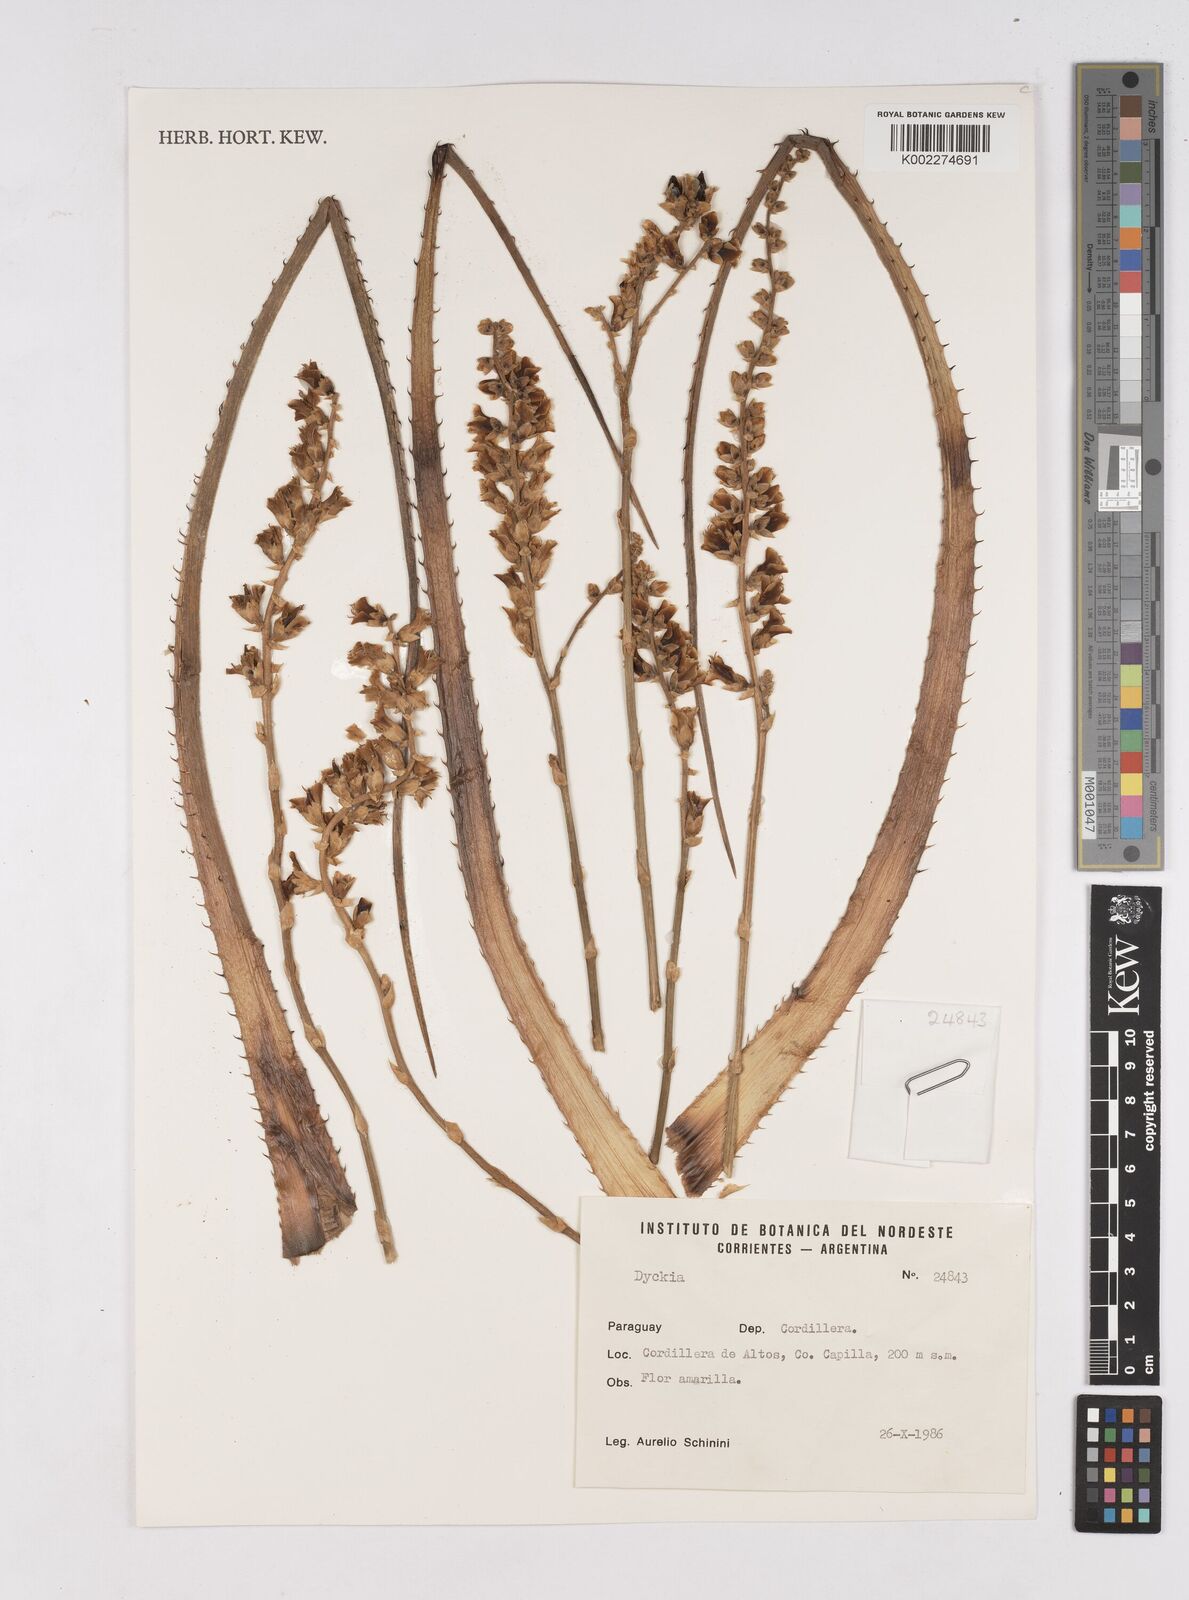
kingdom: Plantae
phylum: Tracheophyta
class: Liliopsida
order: Poales
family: Bromeliaceae
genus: Dyckia
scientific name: Dyckia
